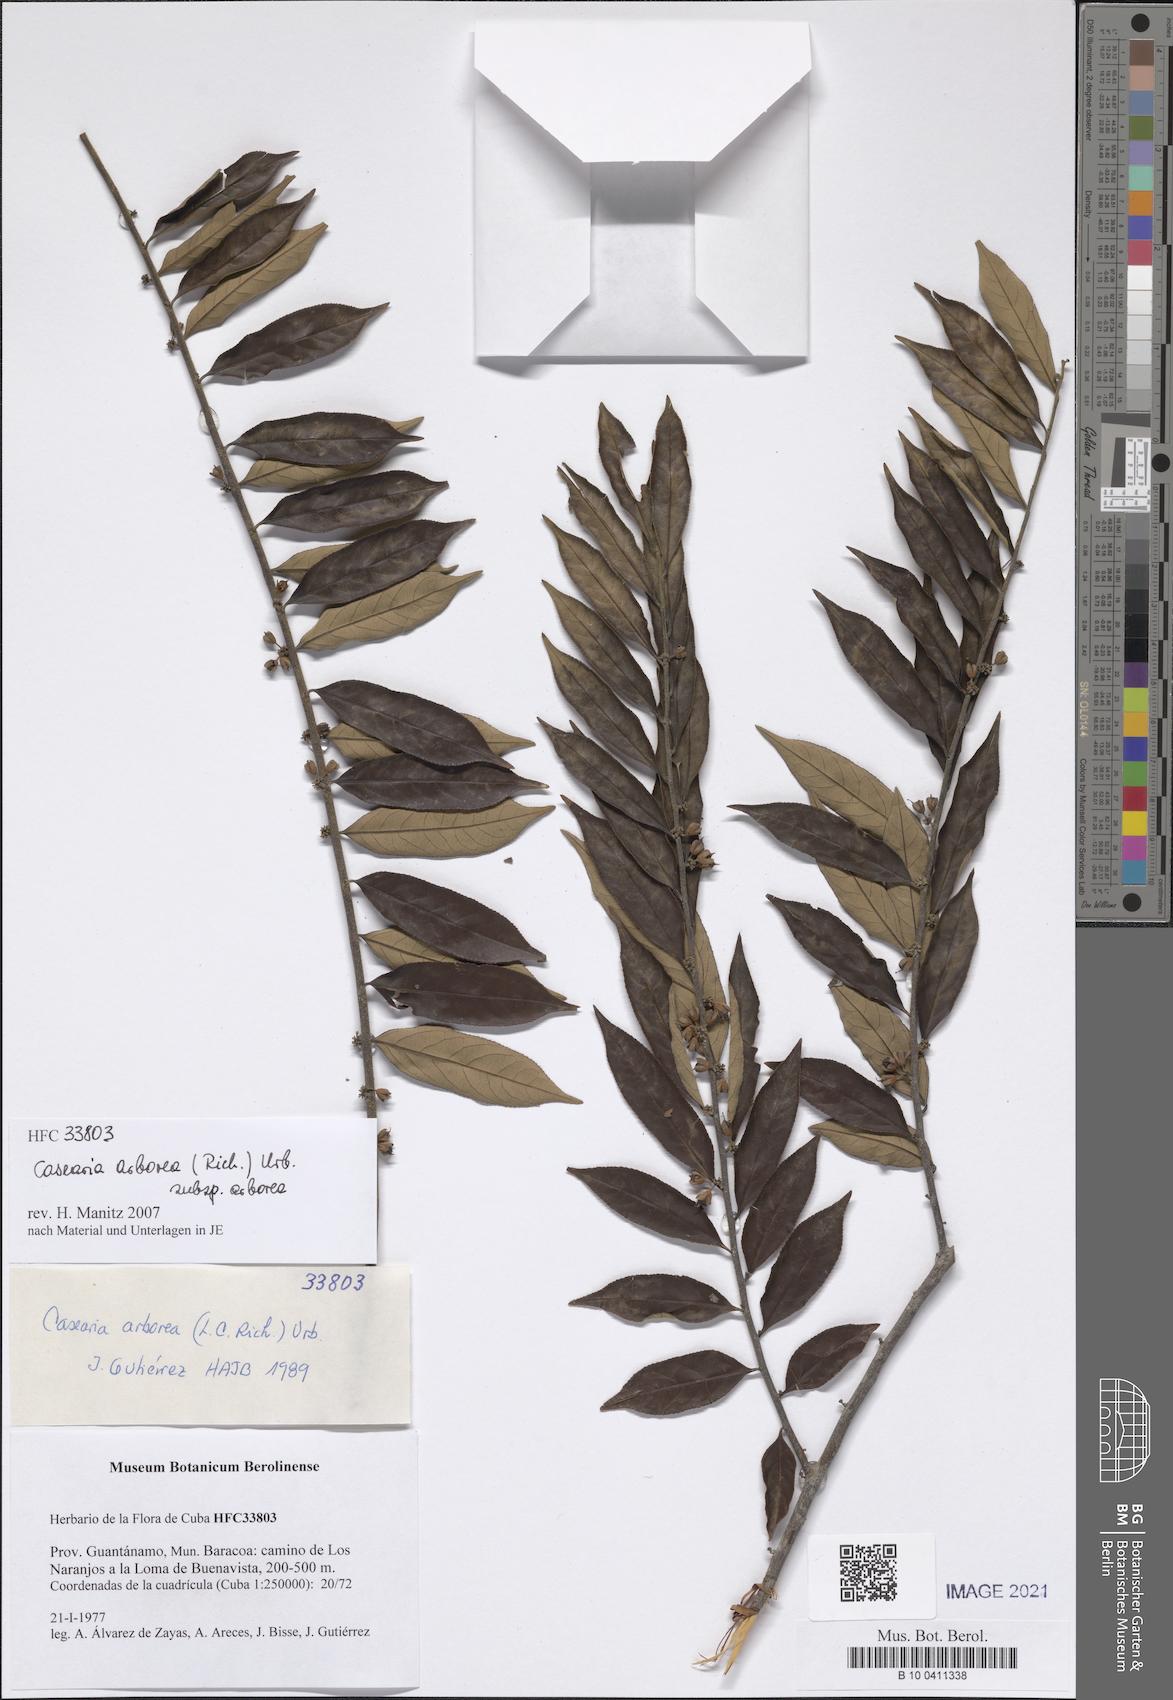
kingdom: Plantae
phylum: Tracheophyta
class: Magnoliopsida
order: Malpighiales
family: Salicaceae
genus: Casearia
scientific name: Casearia arborea
